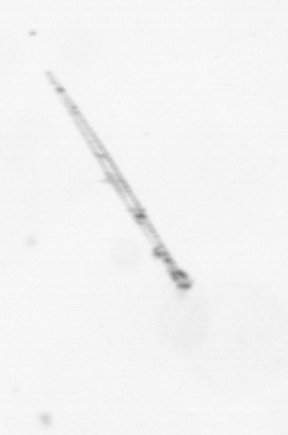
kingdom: Chromista
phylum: Ochrophyta
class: Bacillariophyceae
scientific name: Bacillariophyceae
